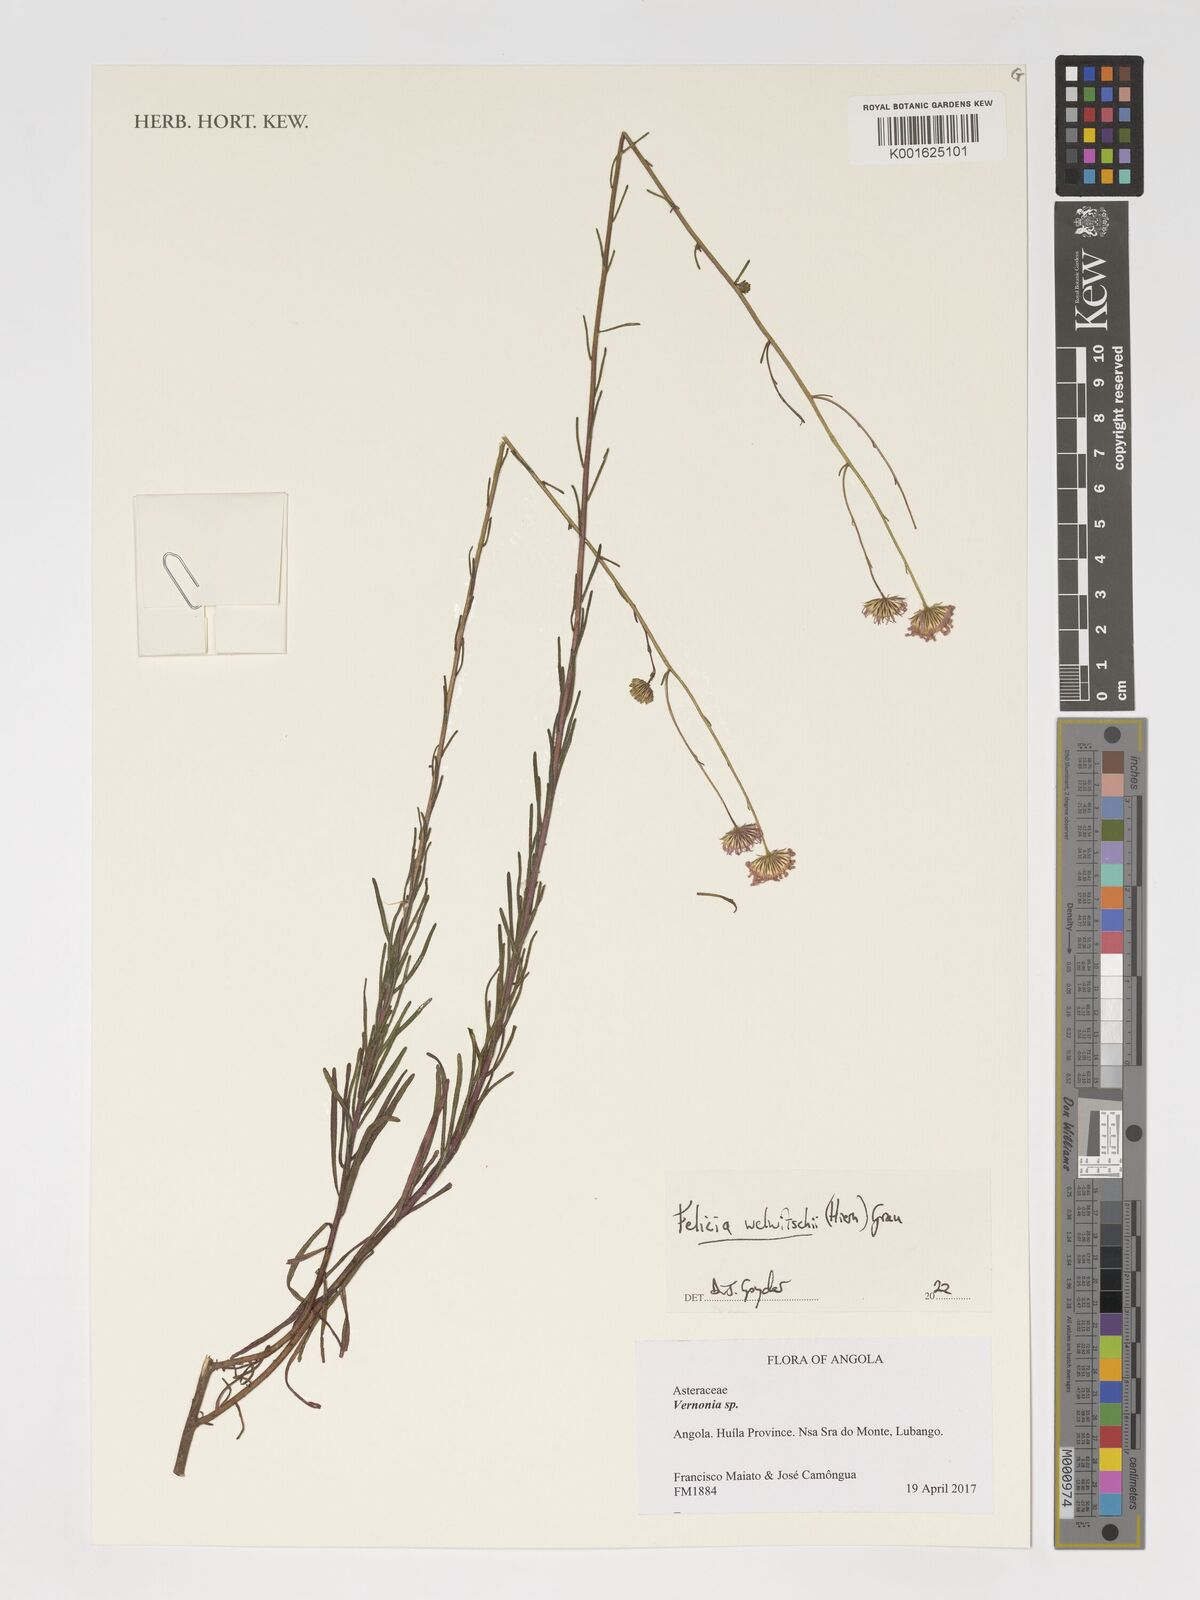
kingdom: Plantae
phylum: Tracheophyta
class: Magnoliopsida
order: Asterales
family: Asteraceae
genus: Felicia
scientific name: Felicia welwitschii
